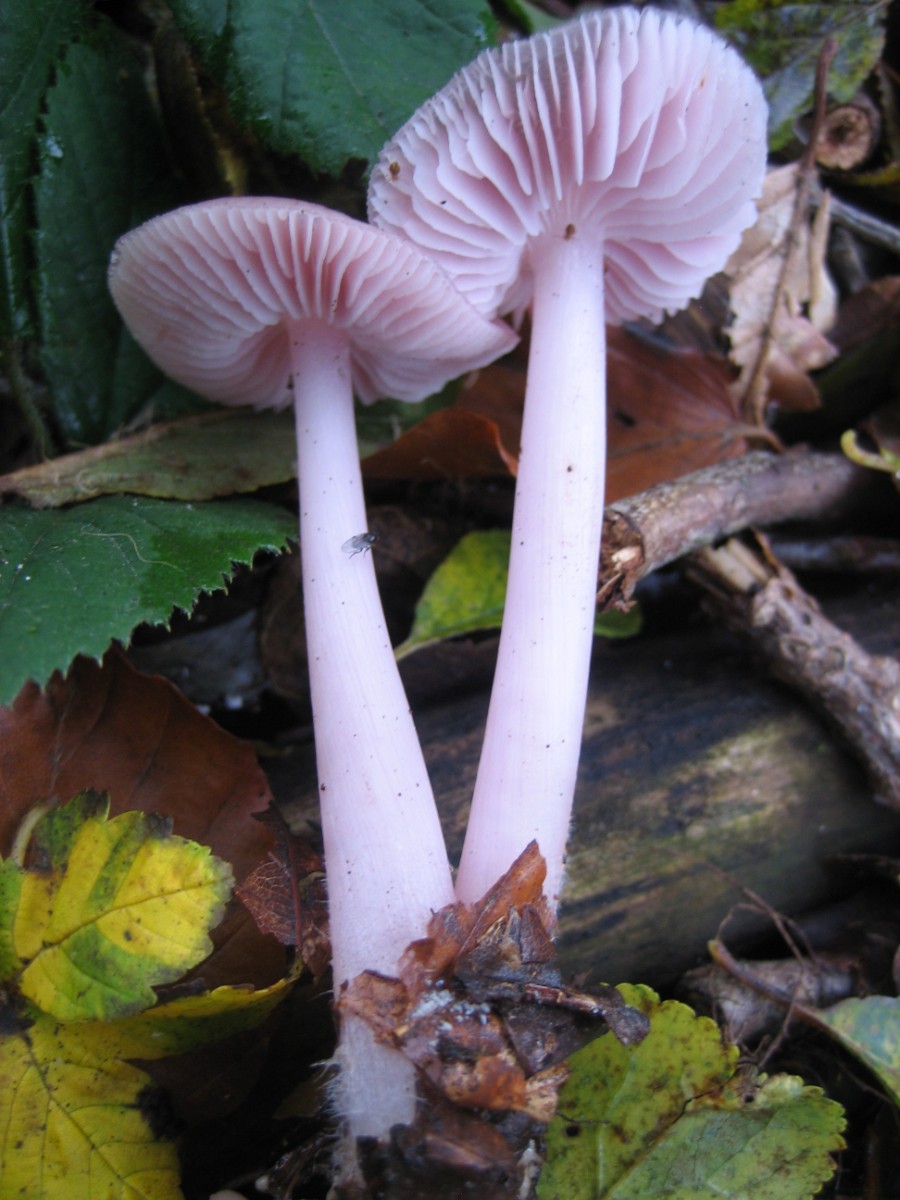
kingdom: Fungi
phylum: Basidiomycota
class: Agaricomycetes
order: Agaricales
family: Mycenaceae
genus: Mycena
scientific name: Mycena rosea
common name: rosa huesvamp
